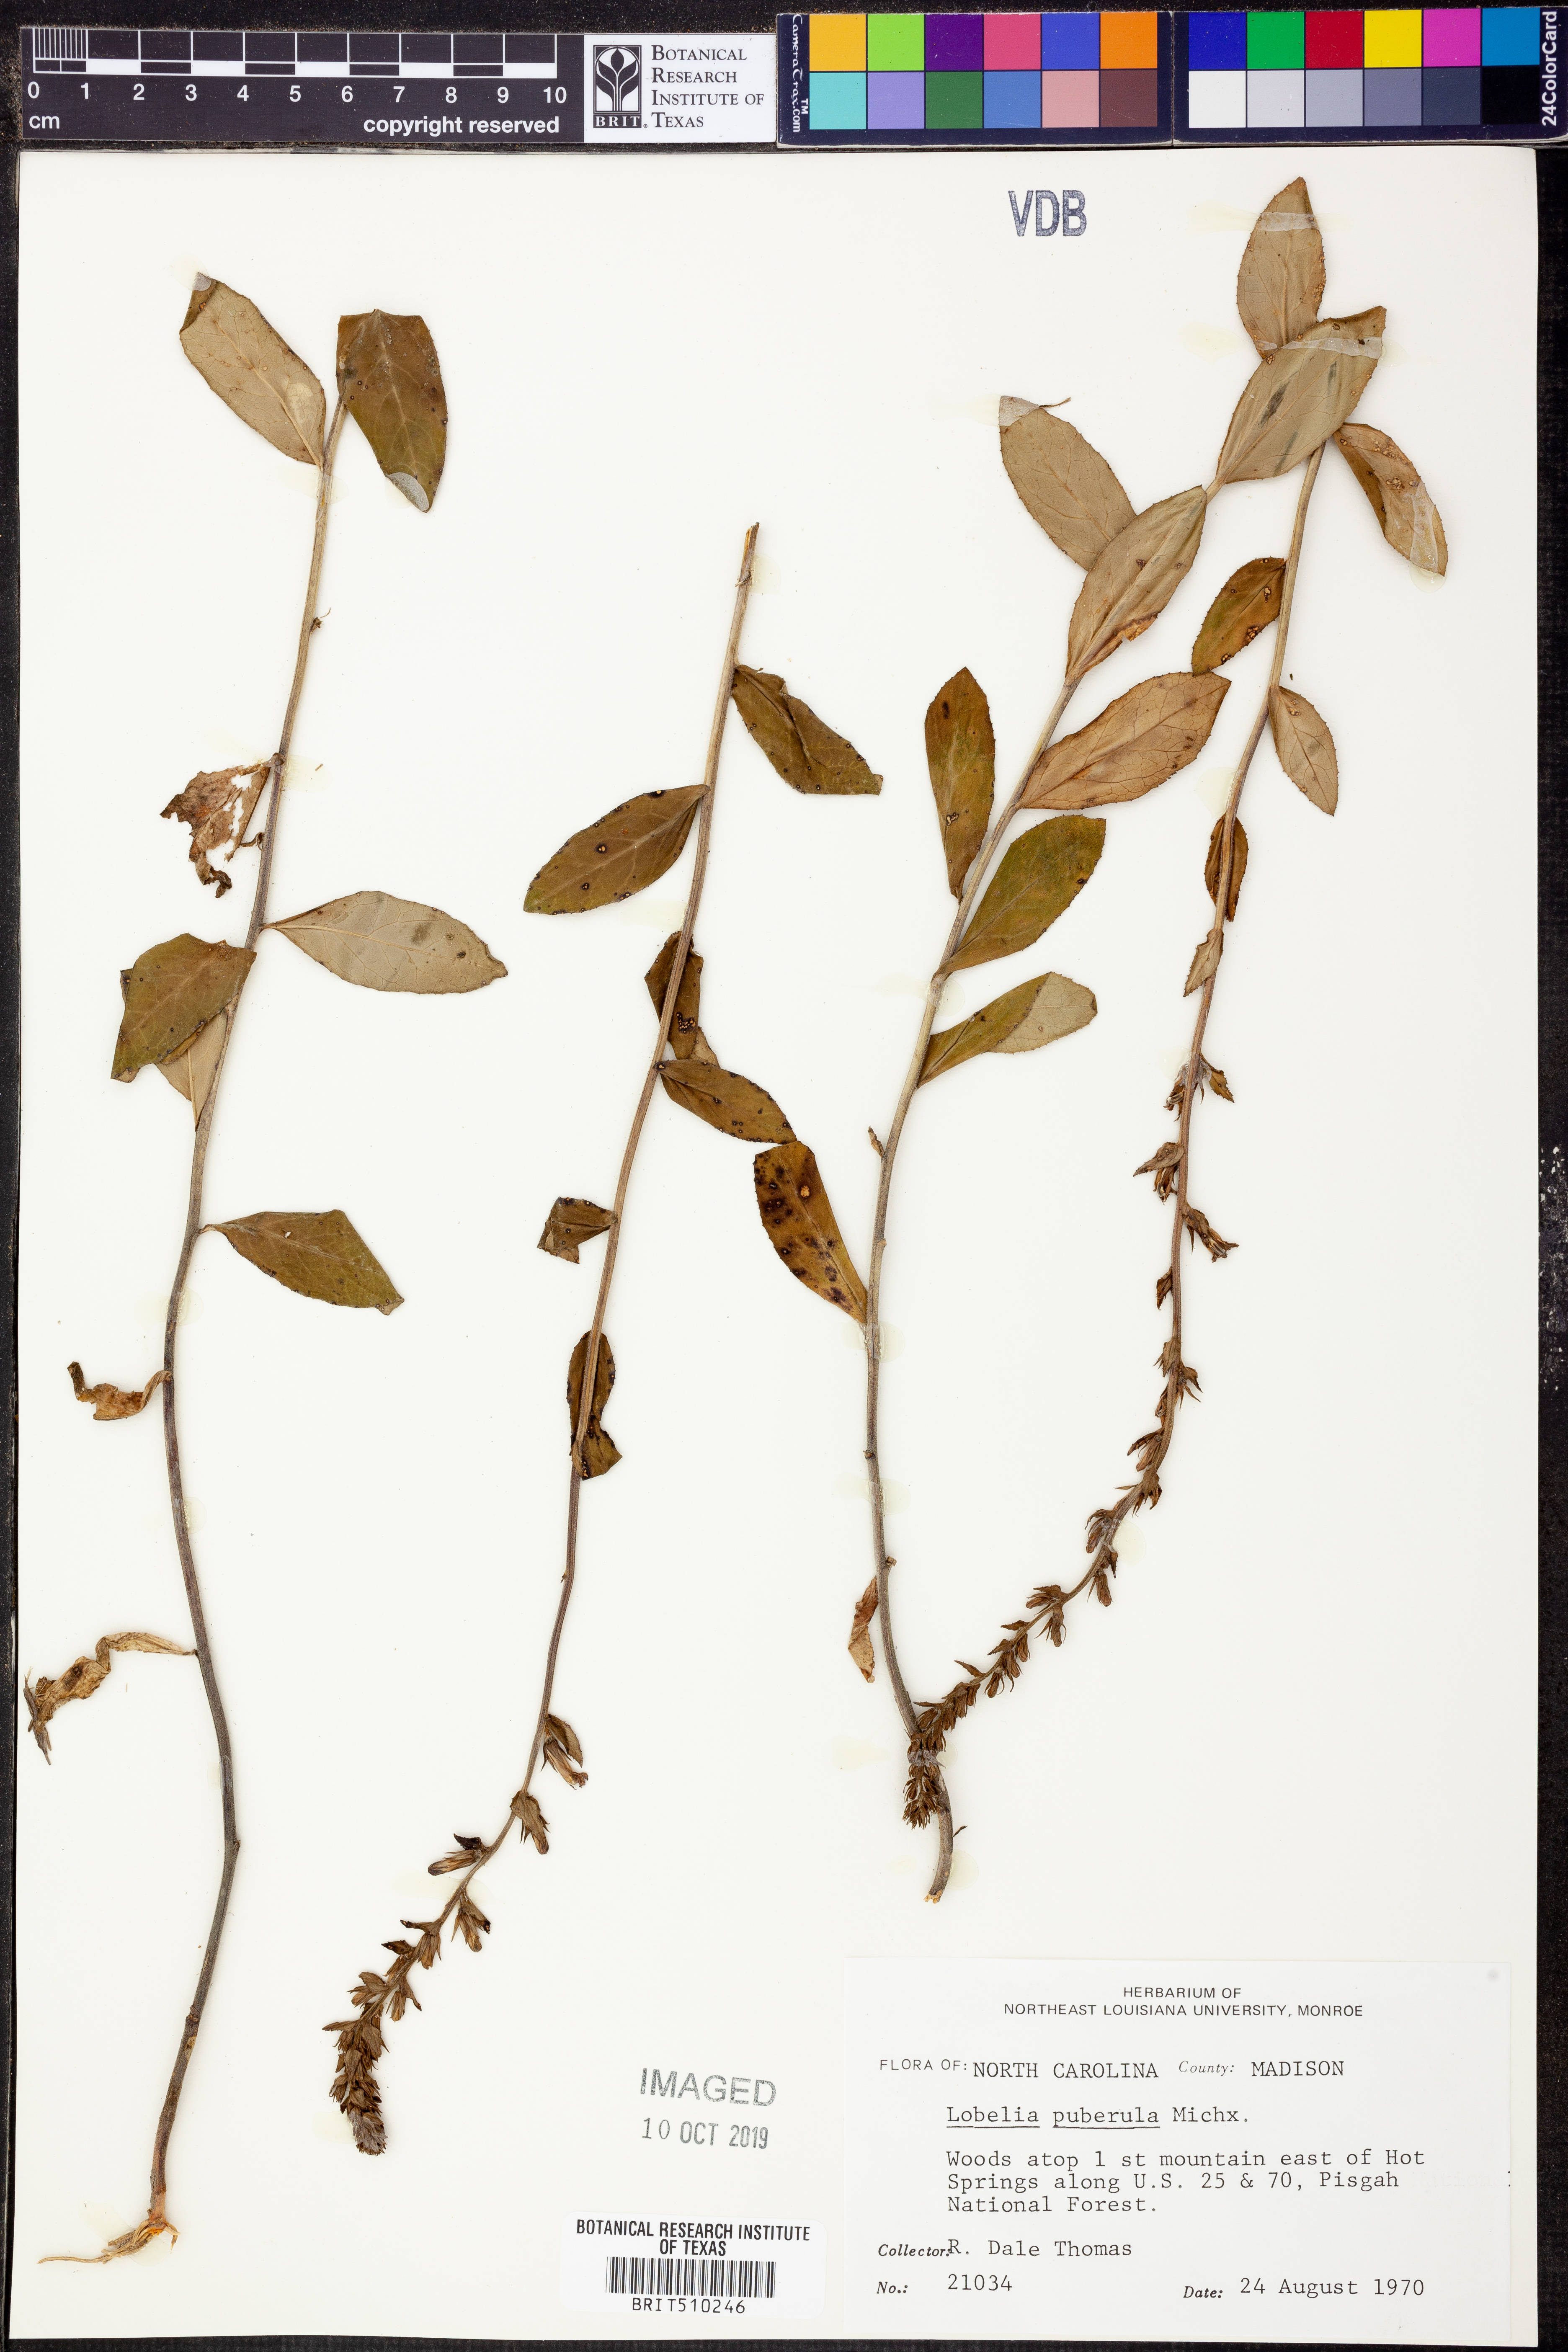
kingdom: Plantae
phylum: Tracheophyta
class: Magnoliopsida
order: Asterales
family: Campanulaceae
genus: Lobelia
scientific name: Lobelia puberula
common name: Purple dewdrop
